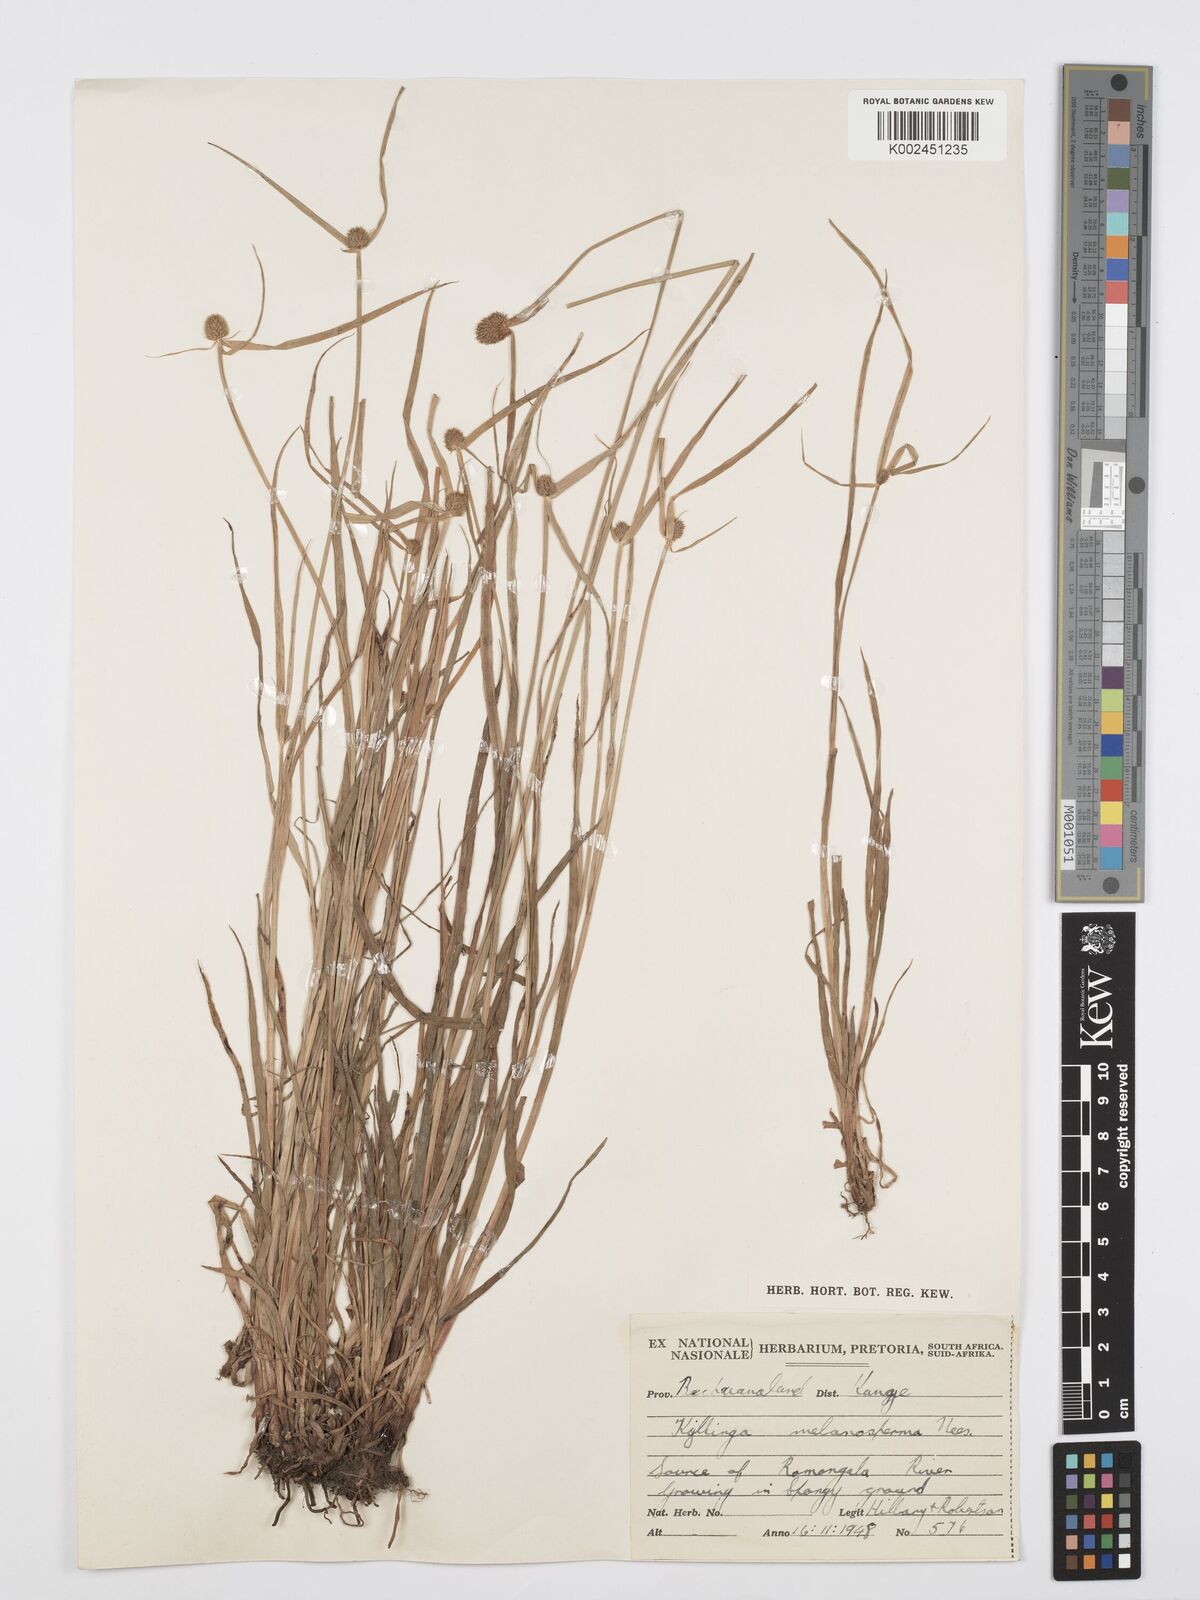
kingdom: Plantae
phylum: Tracheophyta
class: Liliopsida
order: Poales
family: Cyperaceae
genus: Cyperus
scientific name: Cyperus melanospermus
